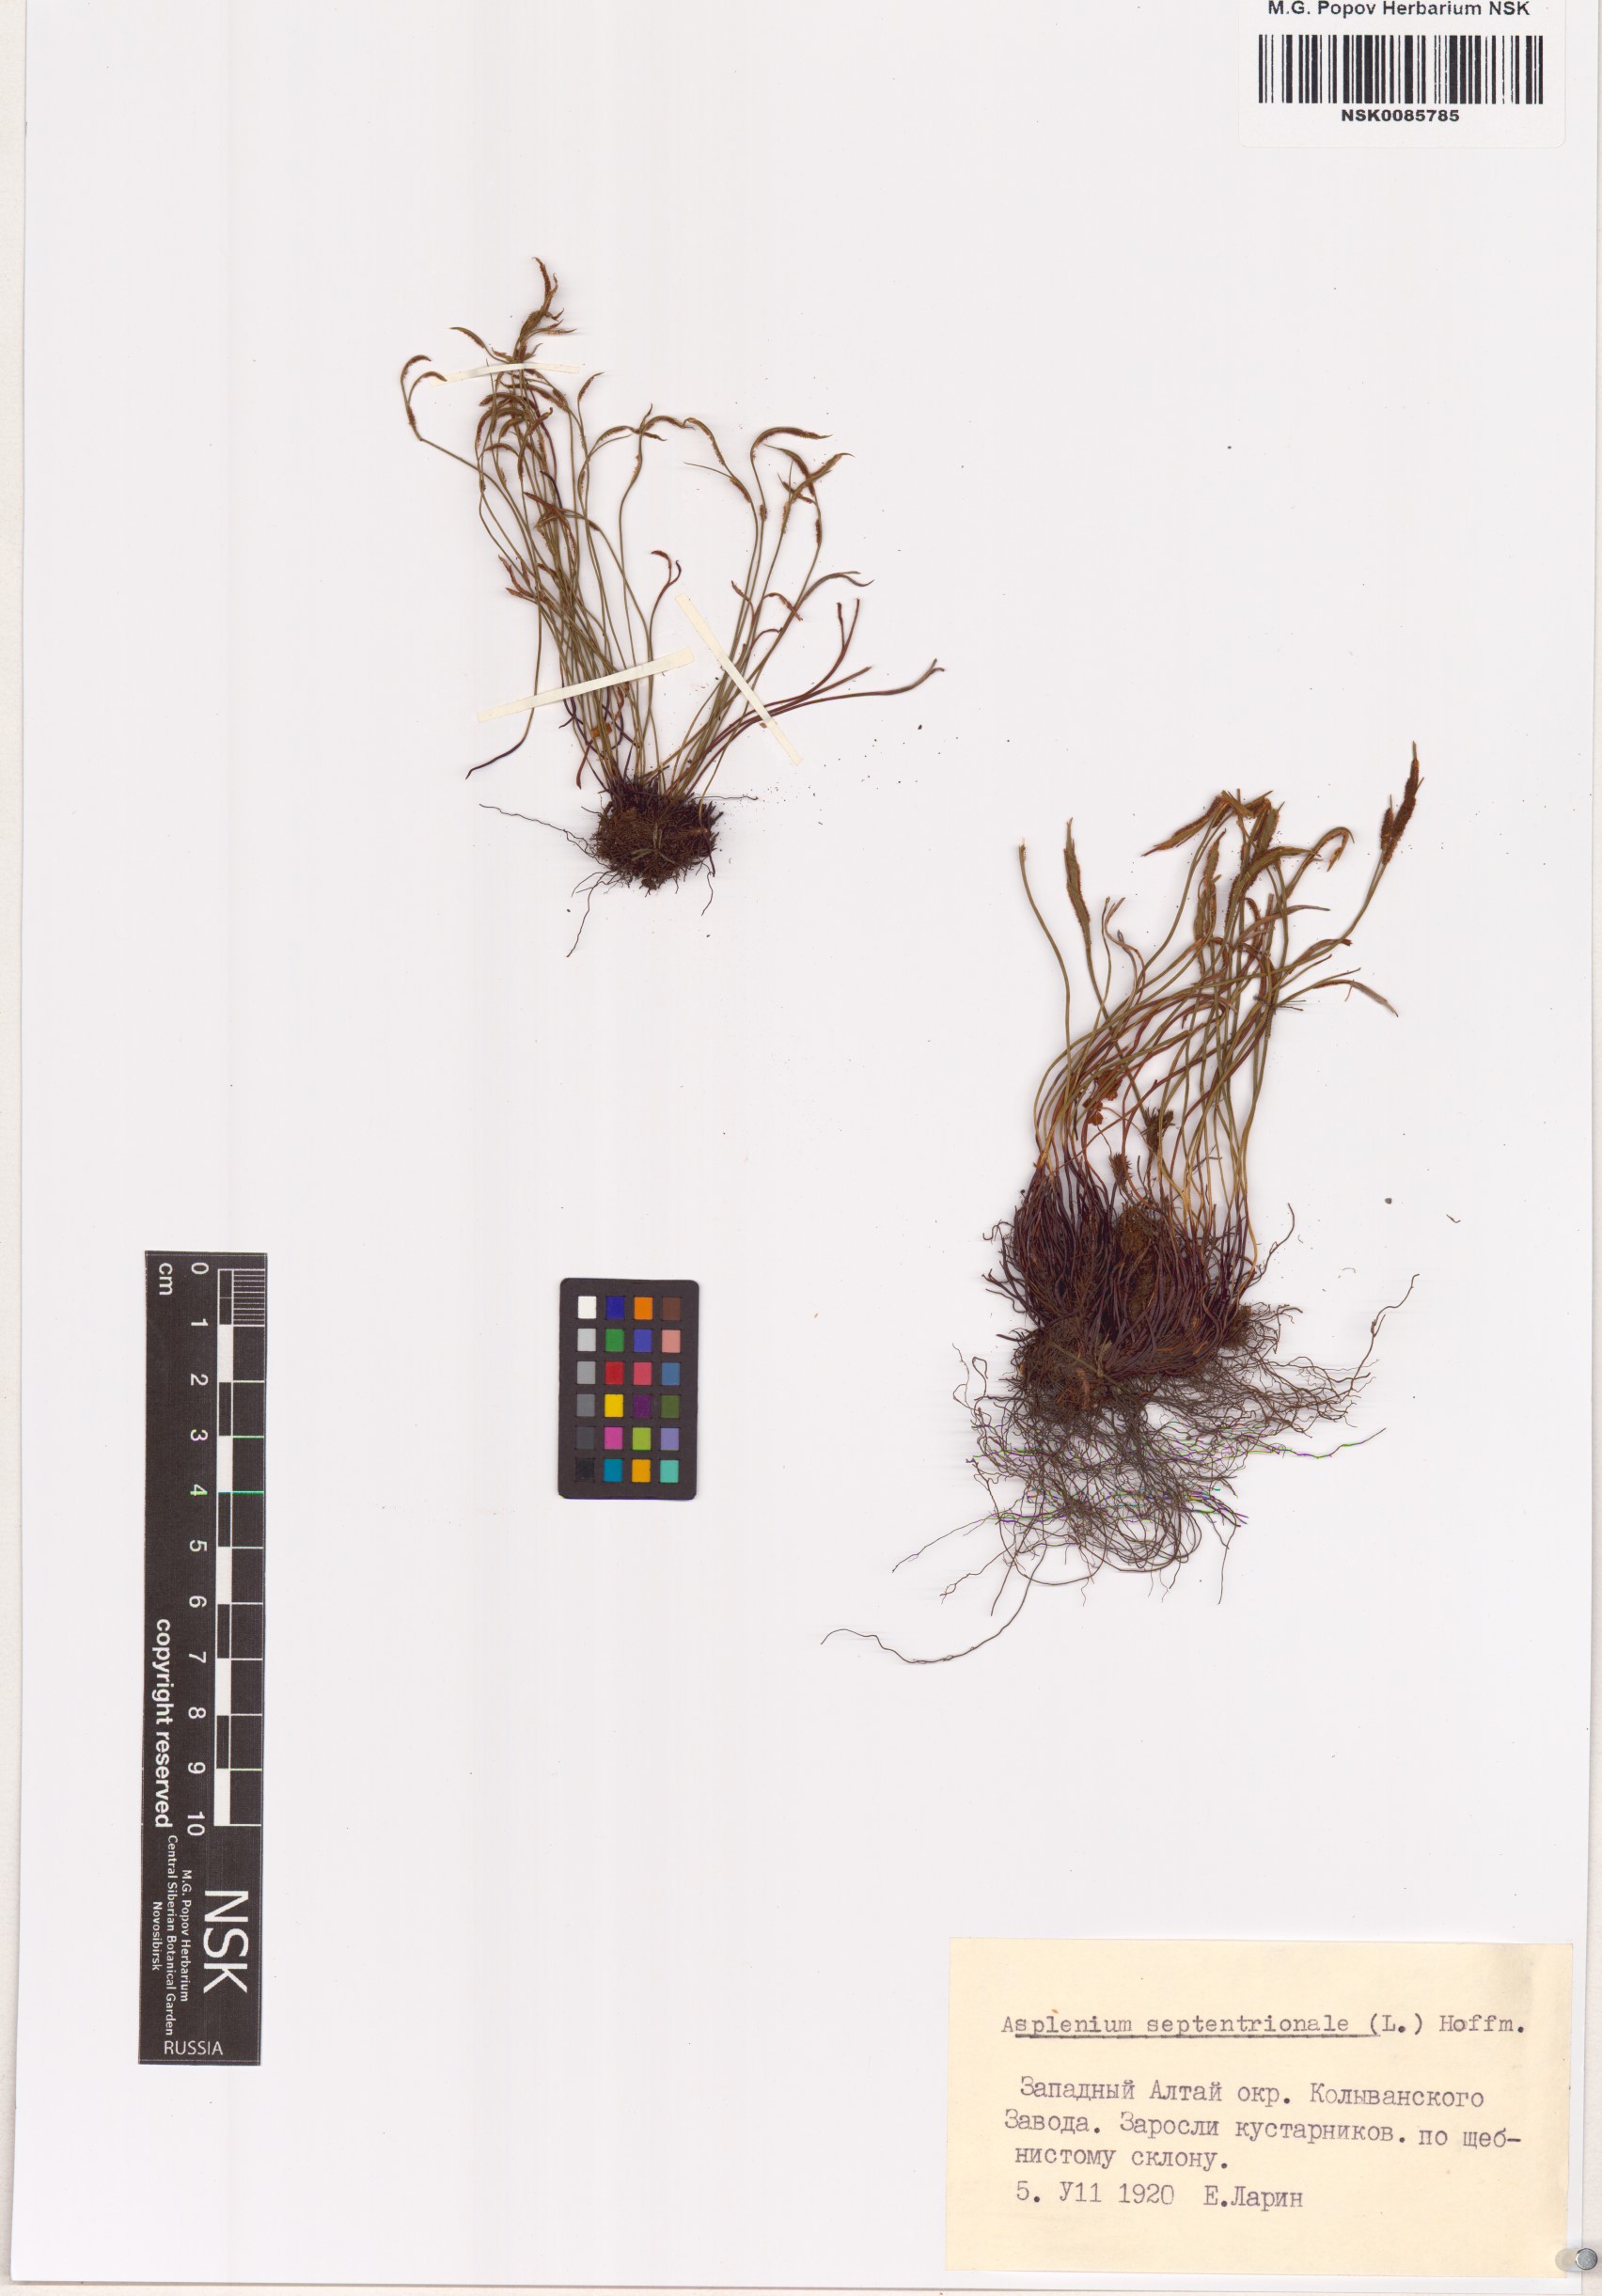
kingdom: Plantae
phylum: Tracheophyta
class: Polypodiopsida
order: Polypodiales
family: Aspleniaceae
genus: Asplenium
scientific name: Asplenium septentrionale
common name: Forked spleenwort
